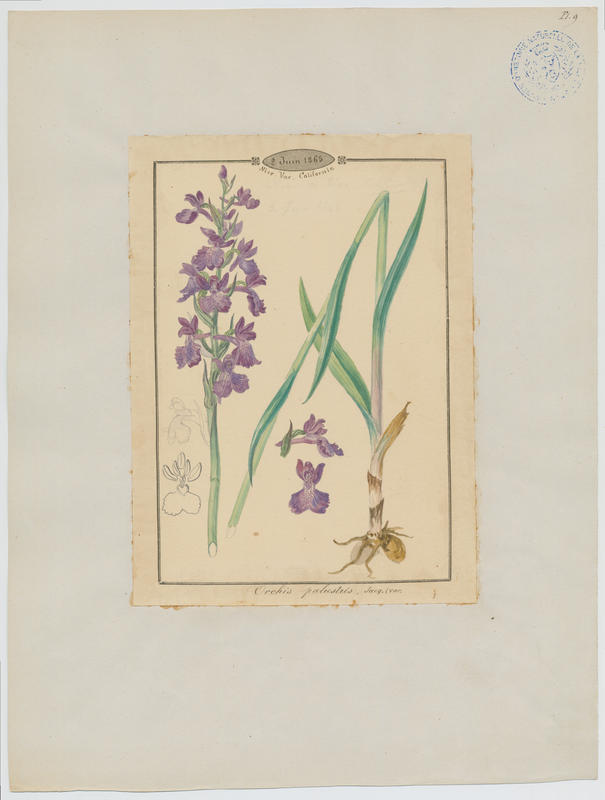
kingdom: Plantae
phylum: Tracheophyta
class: Liliopsida
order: Asparagales
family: Orchidaceae
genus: Anacamptis
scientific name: Anacamptis palustris
